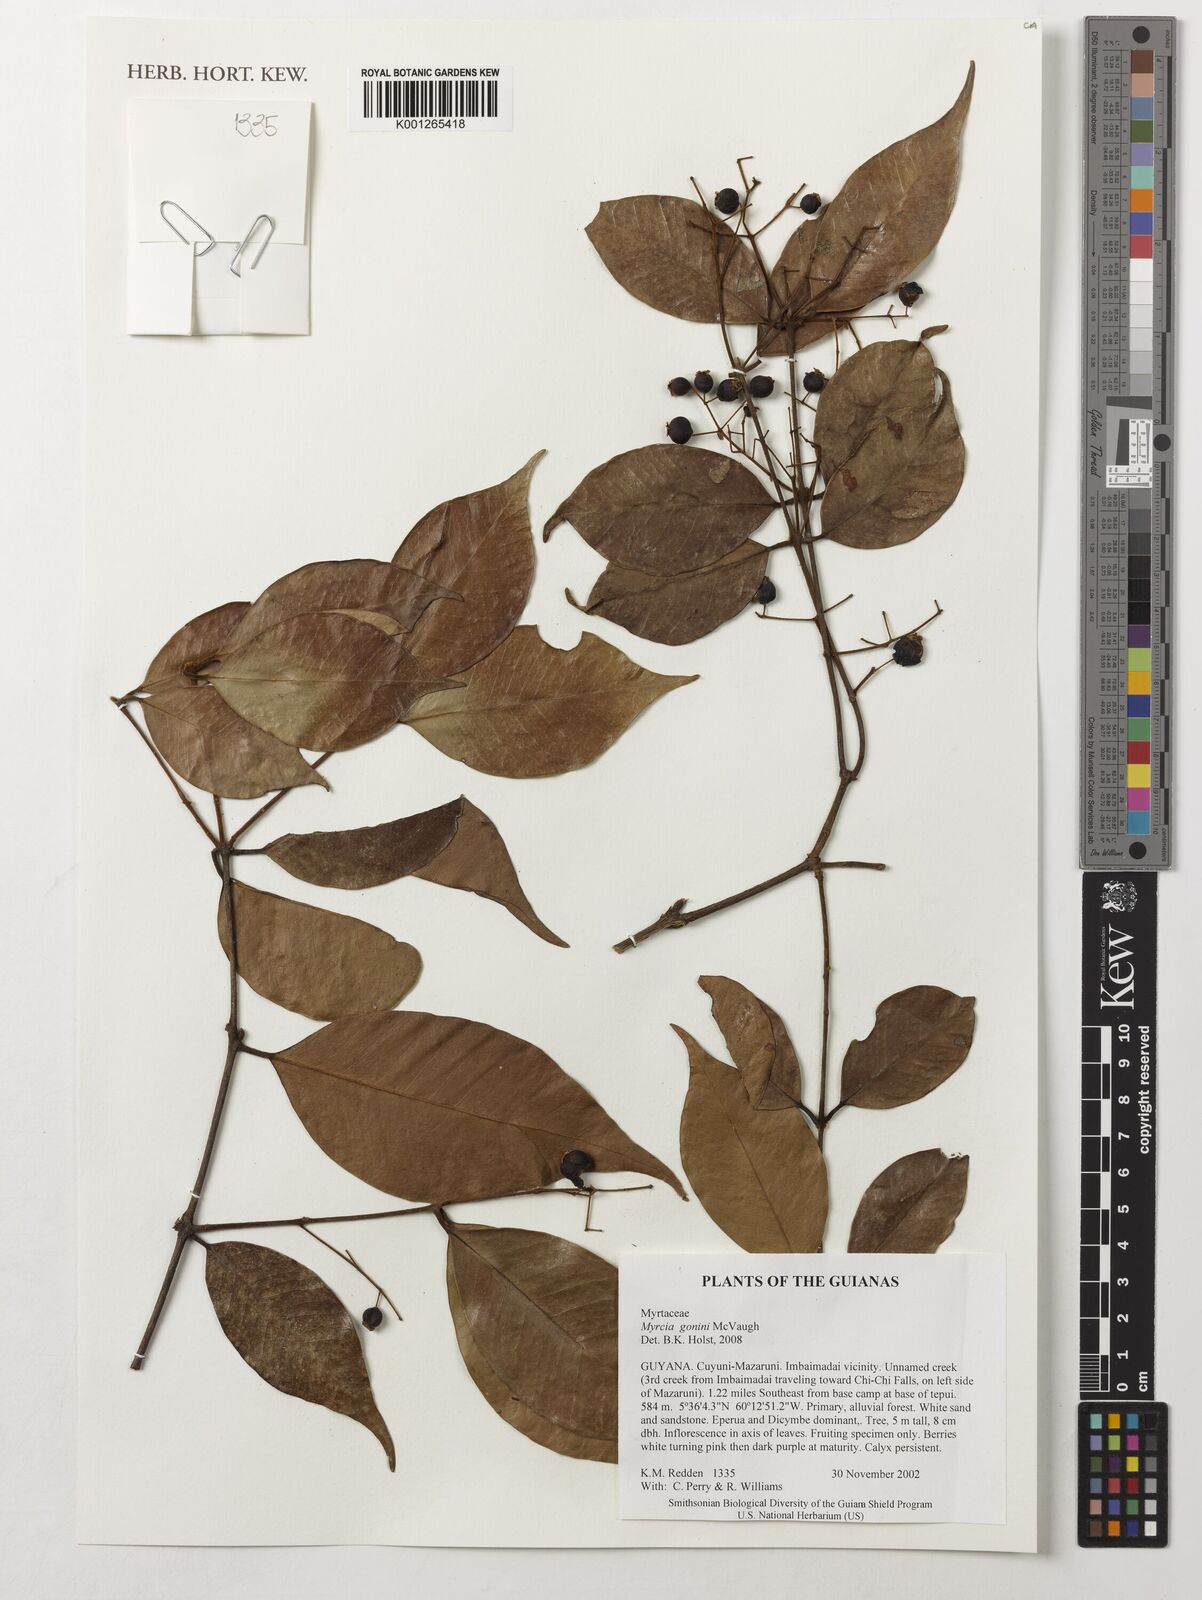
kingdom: Plantae
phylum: Tracheophyta
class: Magnoliopsida
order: Myrtales
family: Myrtaceae
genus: Myrcia
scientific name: Myrcia gonini
